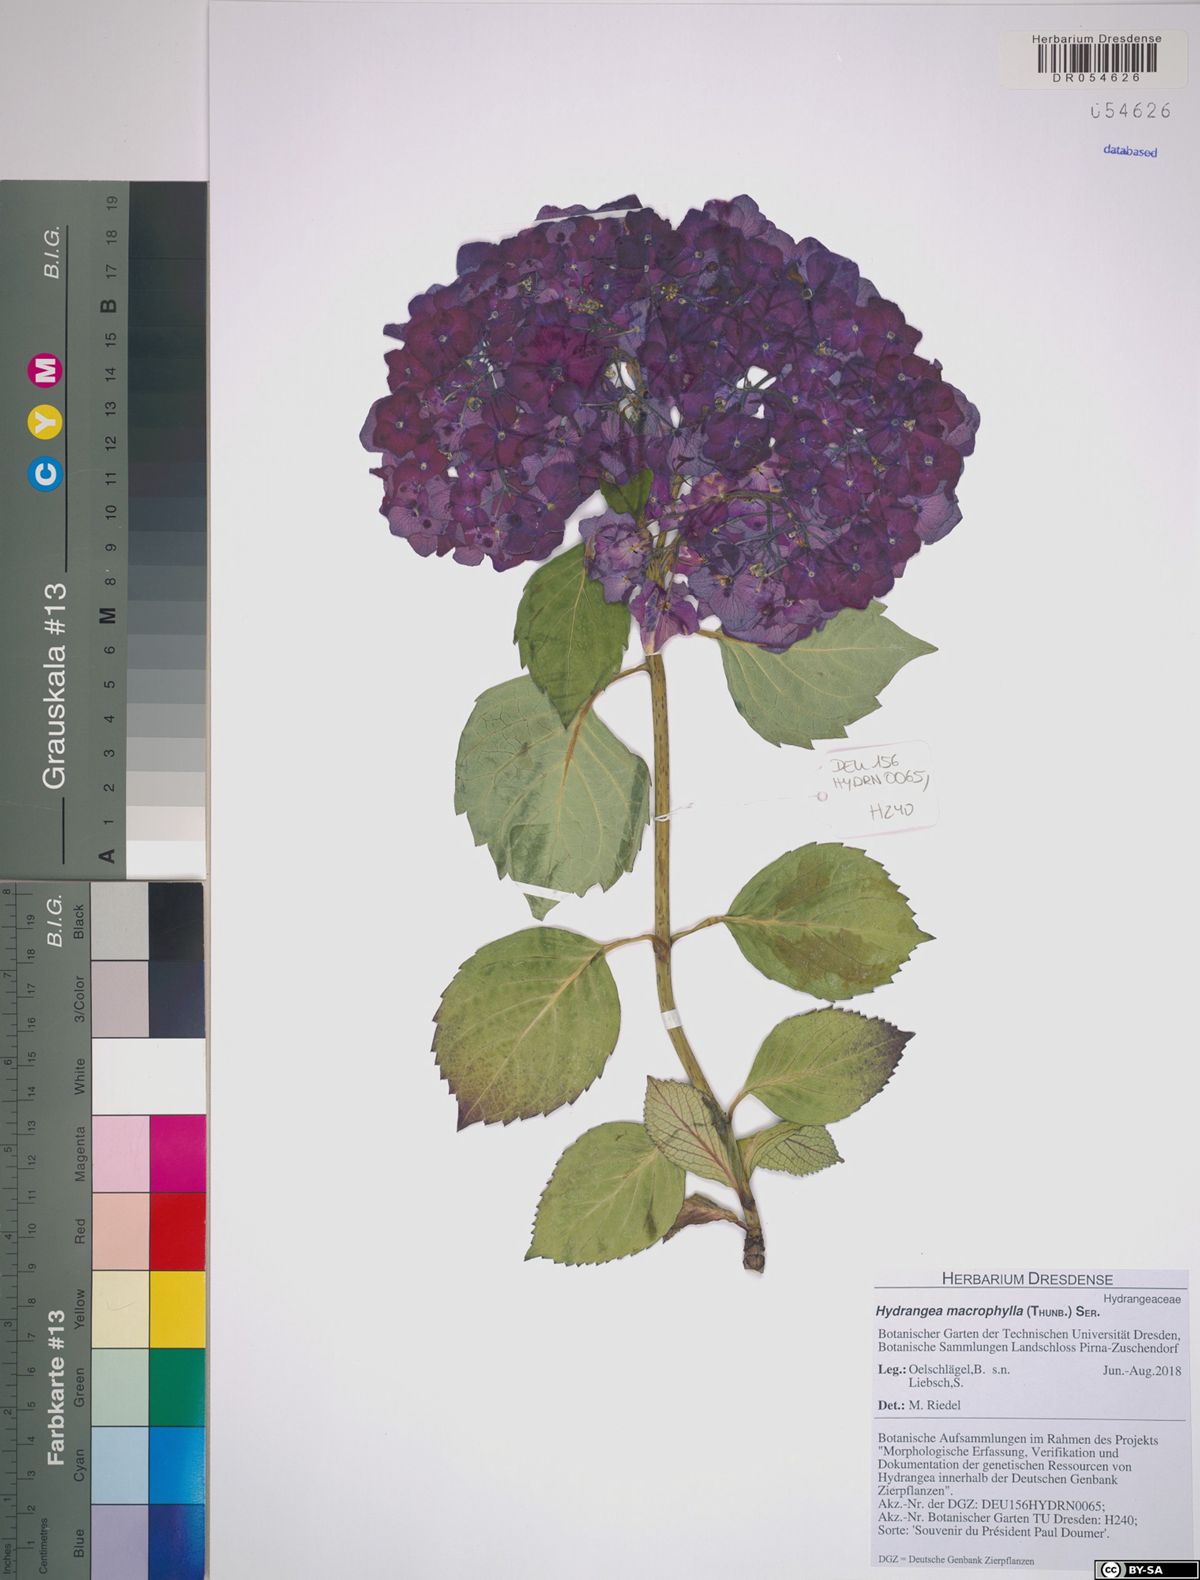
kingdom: Plantae
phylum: Tracheophyta
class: Magnoliopsida
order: Cornales
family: Hydrangeaceae
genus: Hydrangea
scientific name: Hydrangea macrophylla
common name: Hydrangea
